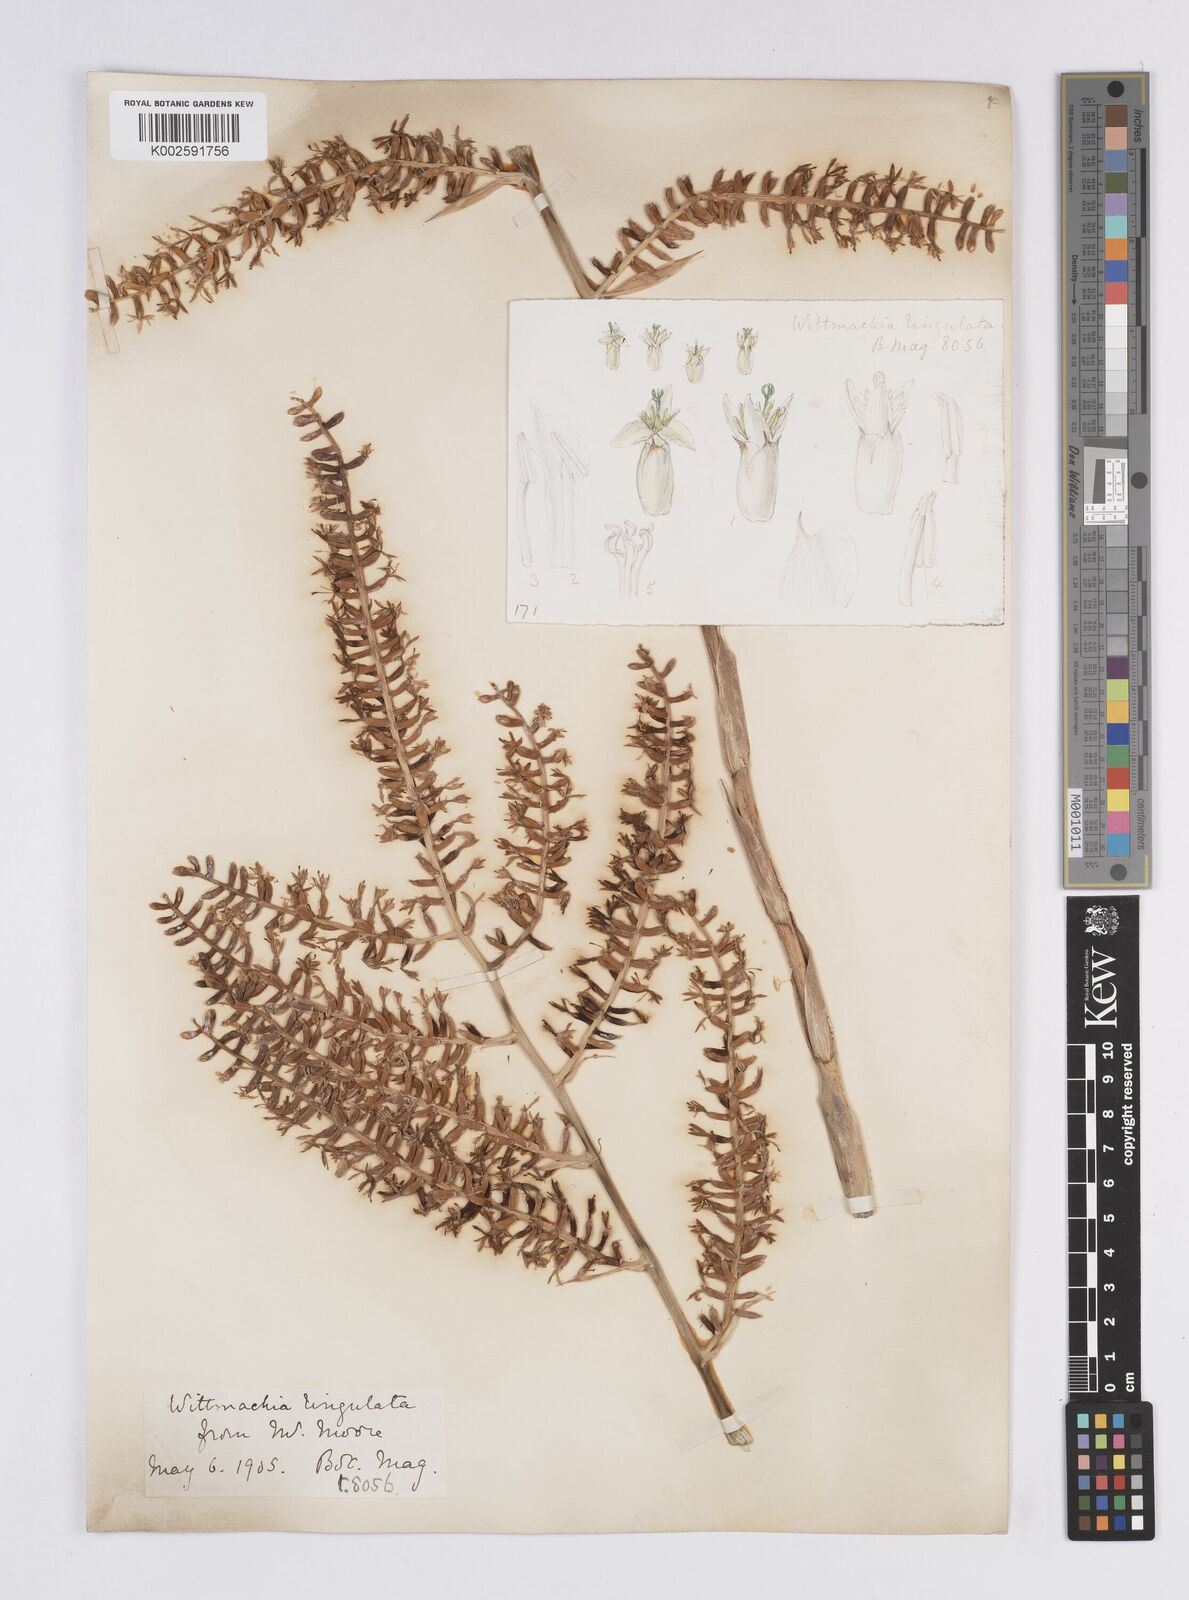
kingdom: Plantae
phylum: Tracheophyta
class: Liliopsida
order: Poales
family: Bromeliaceae
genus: Aechmea
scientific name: Aechmea
